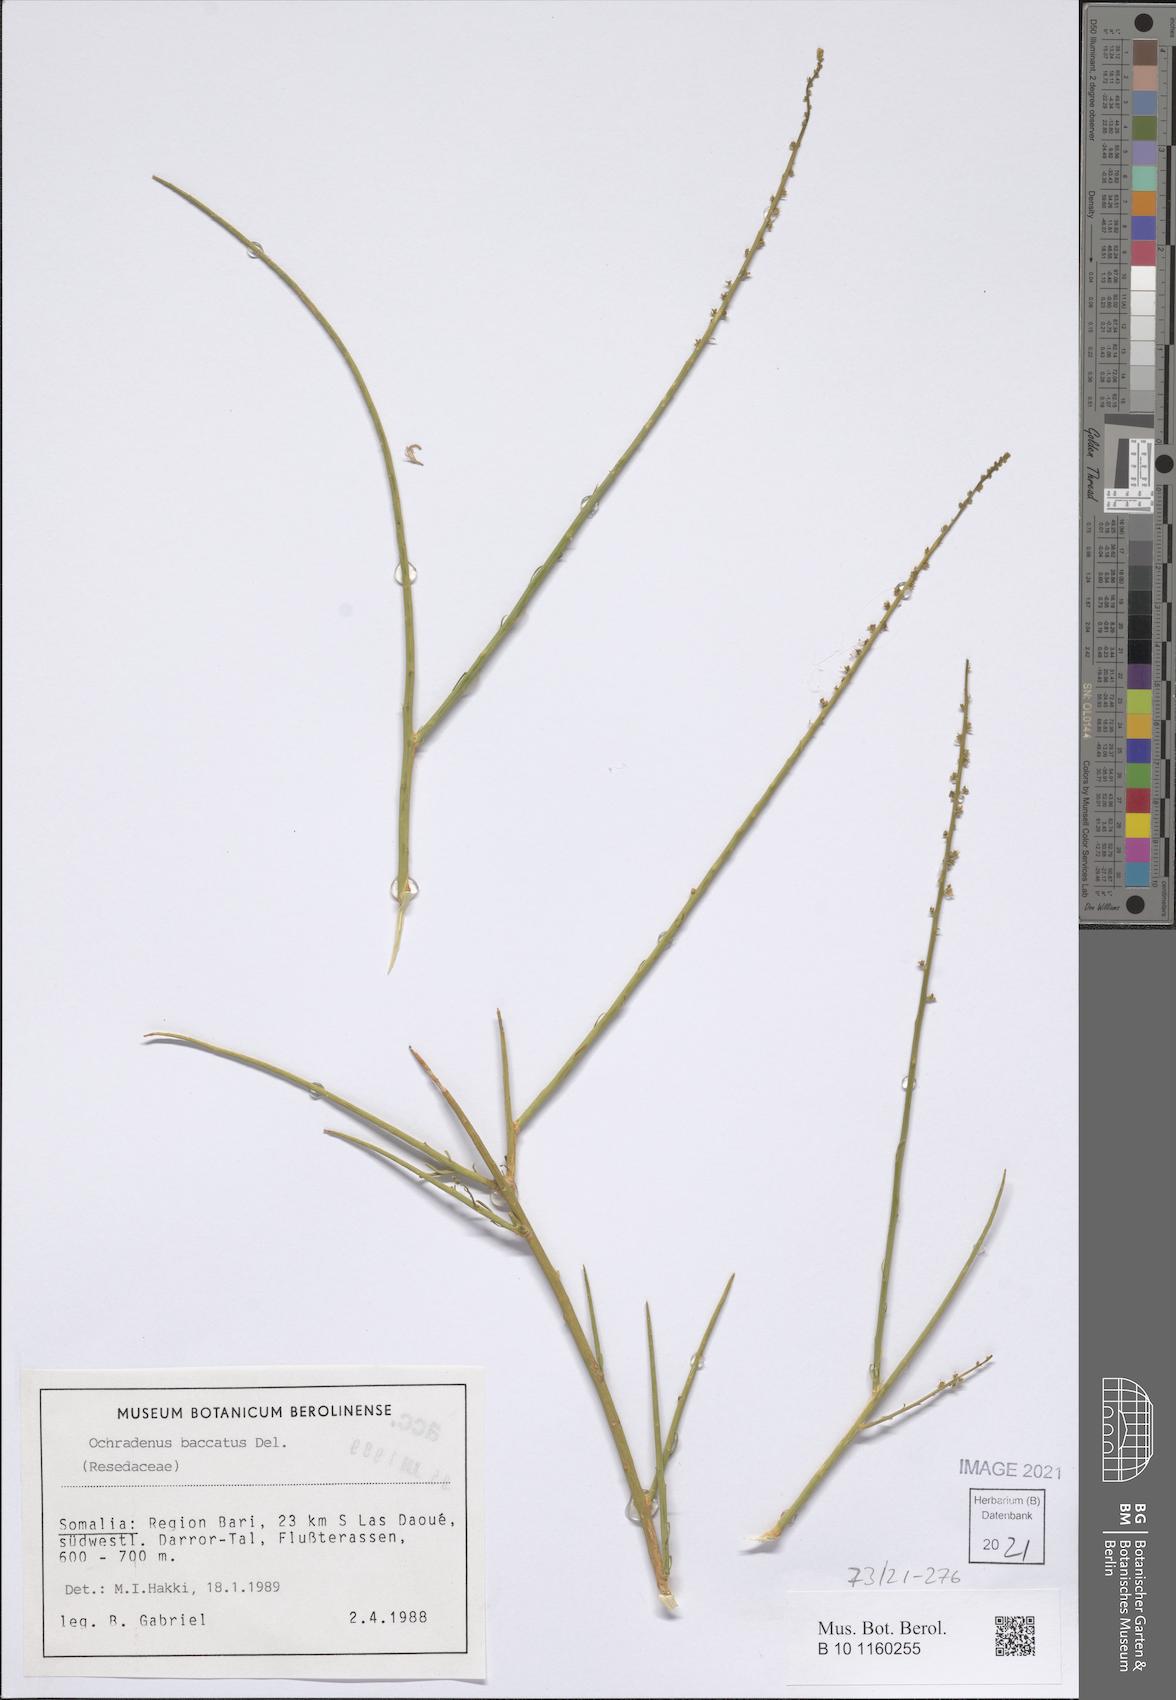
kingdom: Plantae
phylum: Tracheophyta
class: Magnoliopsida
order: Brassicales
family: Resedaceae
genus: Ochradenus
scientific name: Ochradenus baccatus
